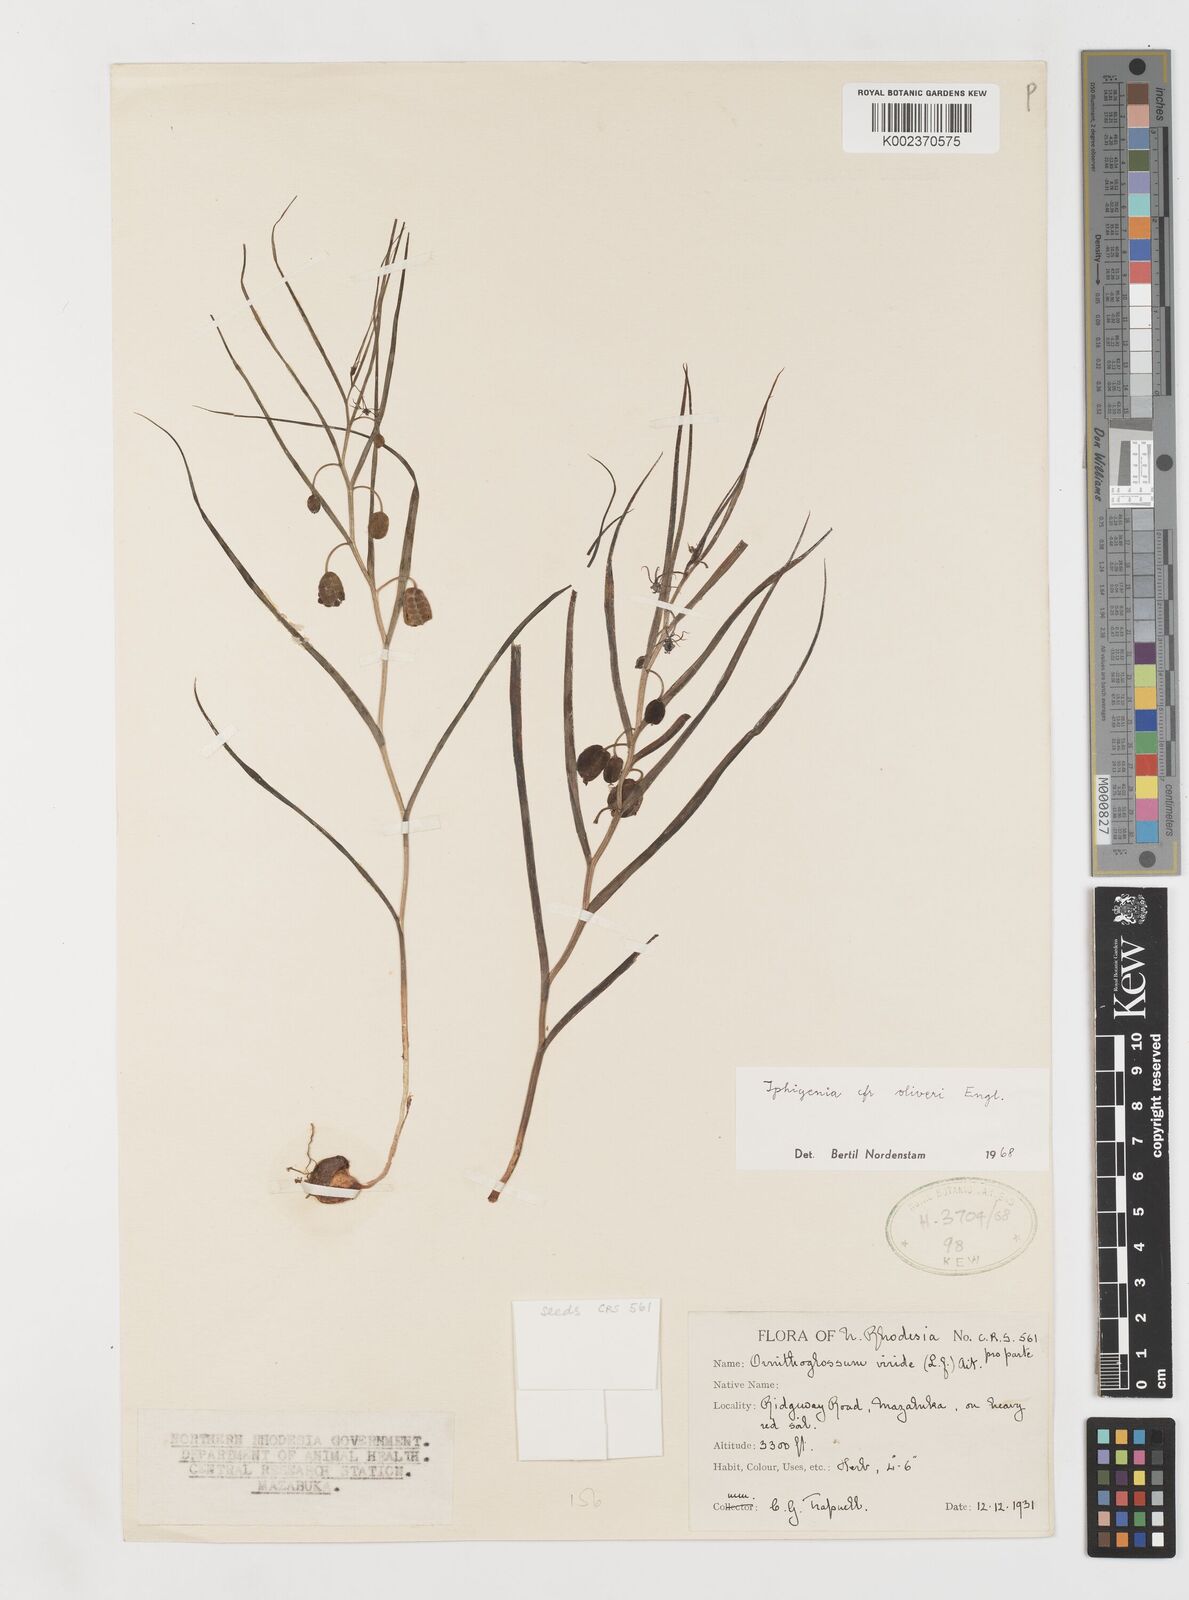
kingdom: Plantae
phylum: Tracheophyta
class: Liliopsida
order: Liliales
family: Colchicaceae
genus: Iphigenia
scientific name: Iphigenia oliveri
